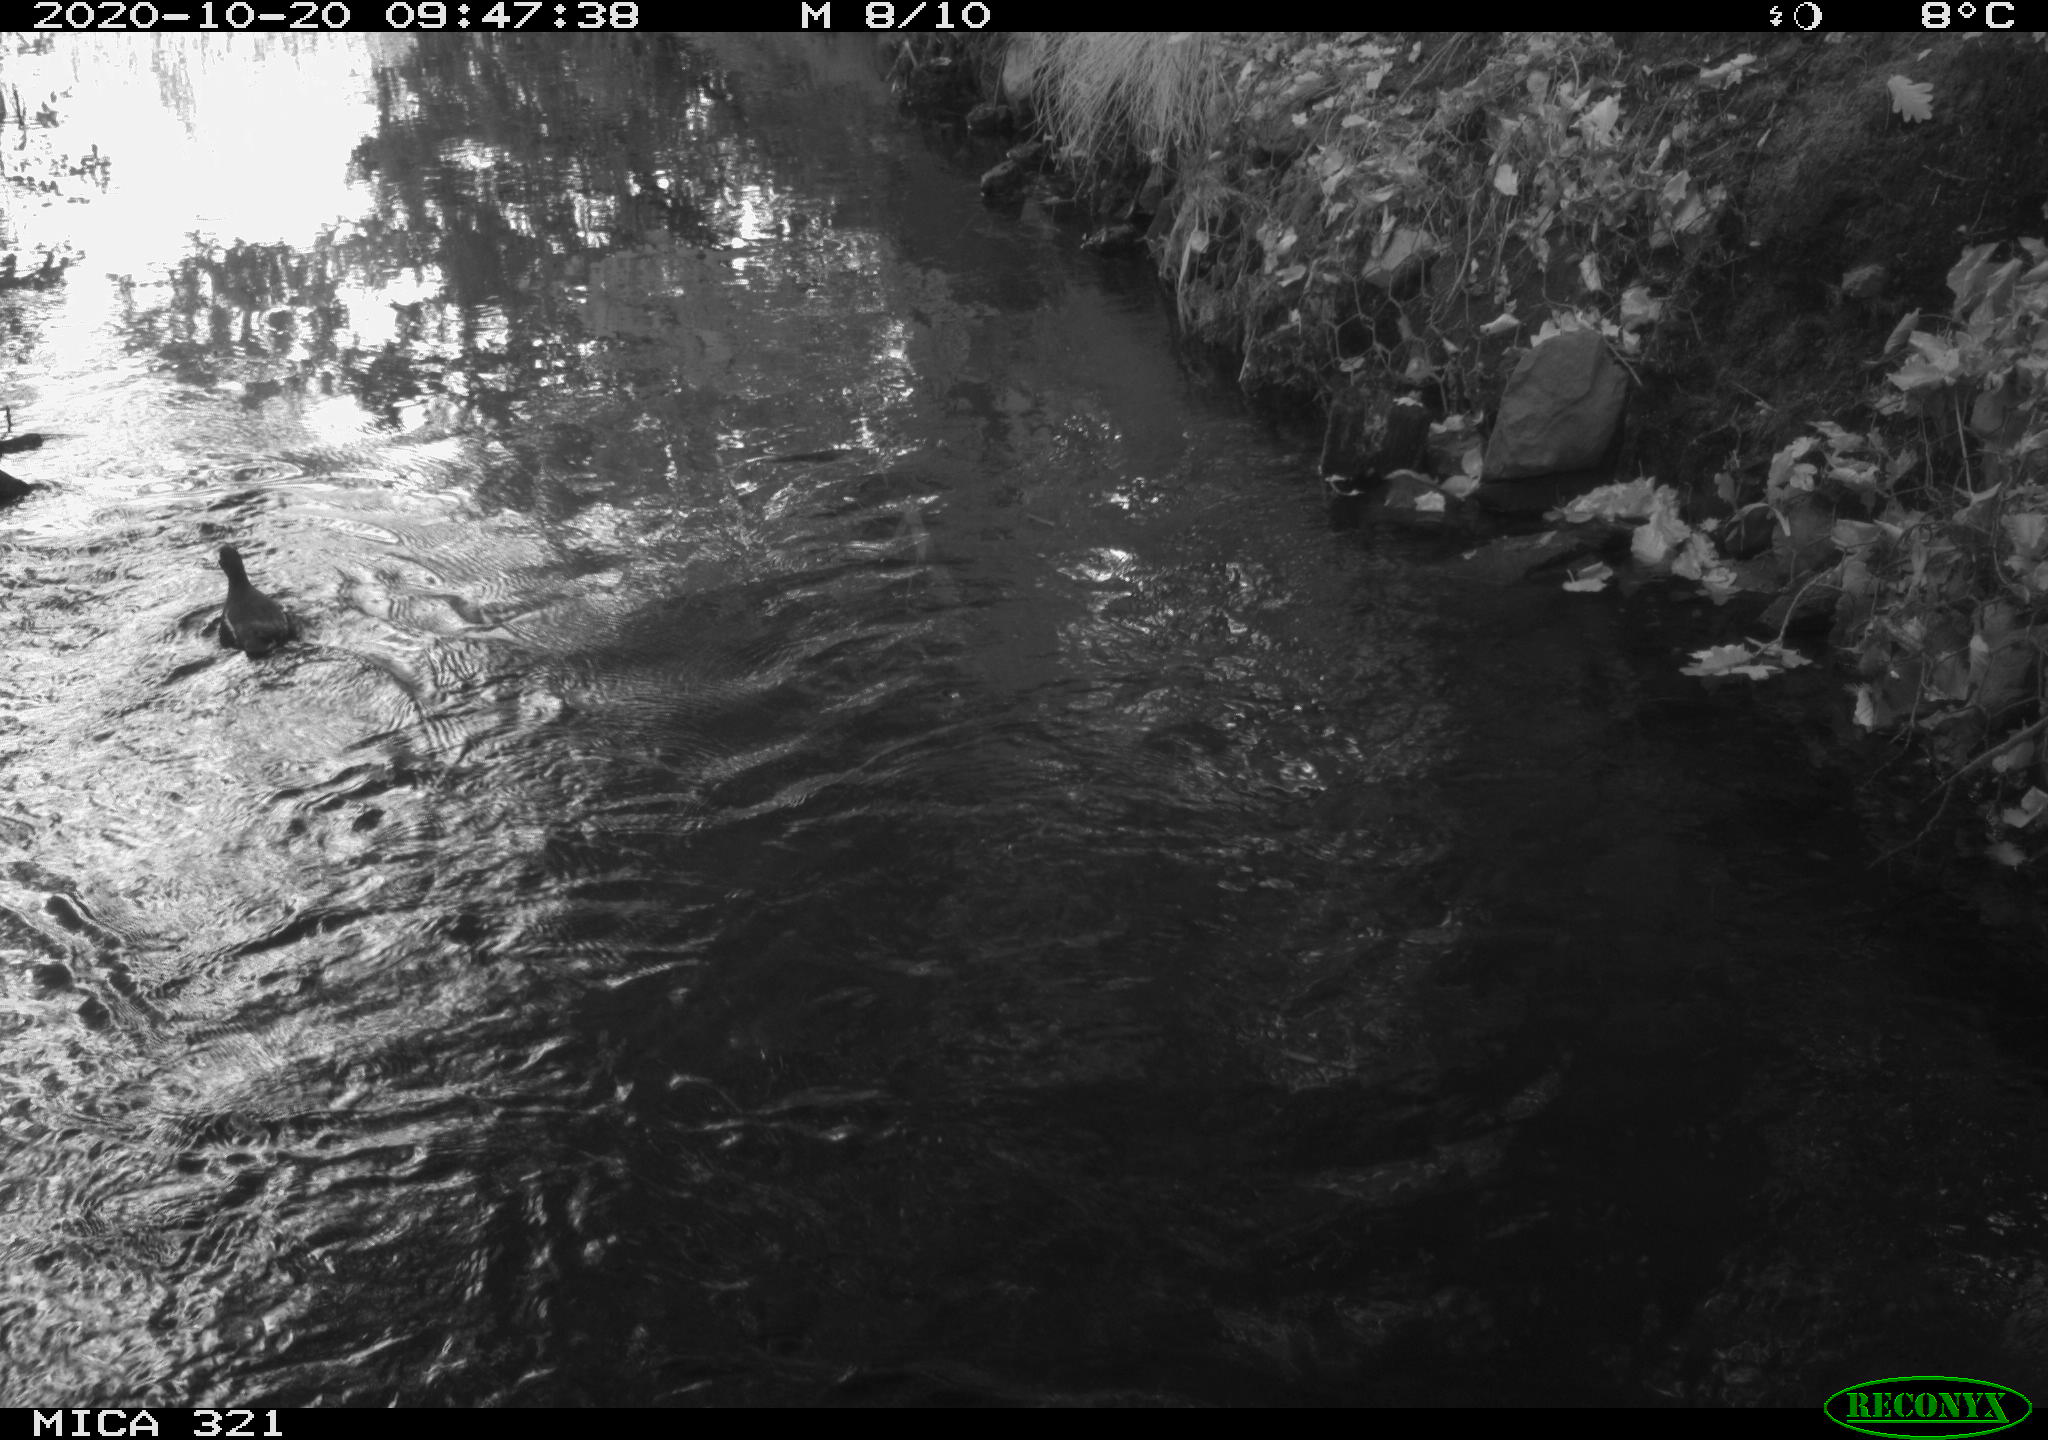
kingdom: Animalia
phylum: Chordata
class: Aves
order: Gruiformes
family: Rallidae
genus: Gallinula
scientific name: Gallinula chloropus
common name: Common moorhen
